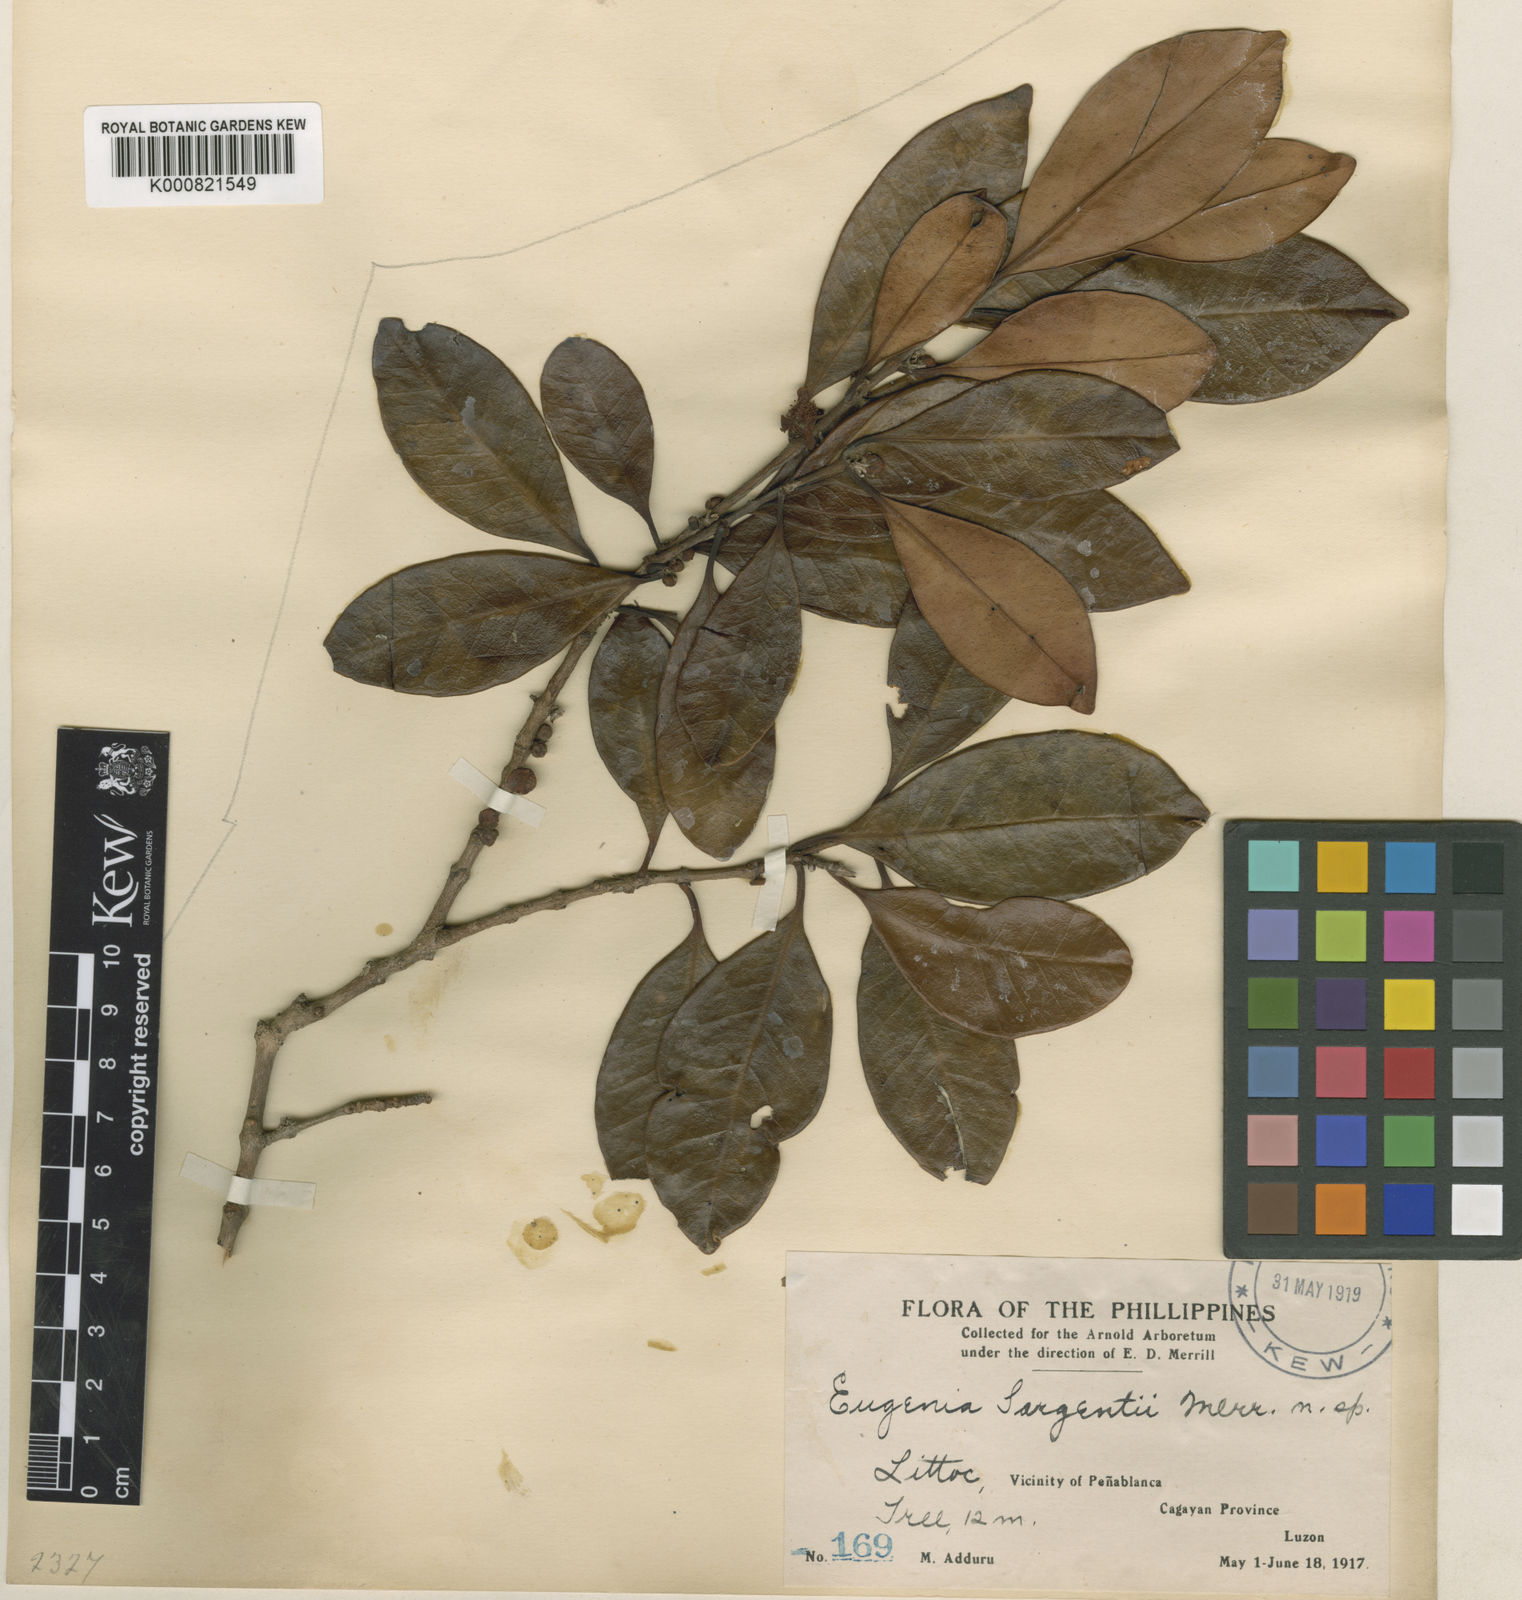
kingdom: Plantae
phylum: Tracheophyta
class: Magnoliopsida
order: Myrtales
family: Myrtaceae
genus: Eugenia
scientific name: Eugenia sargentii
